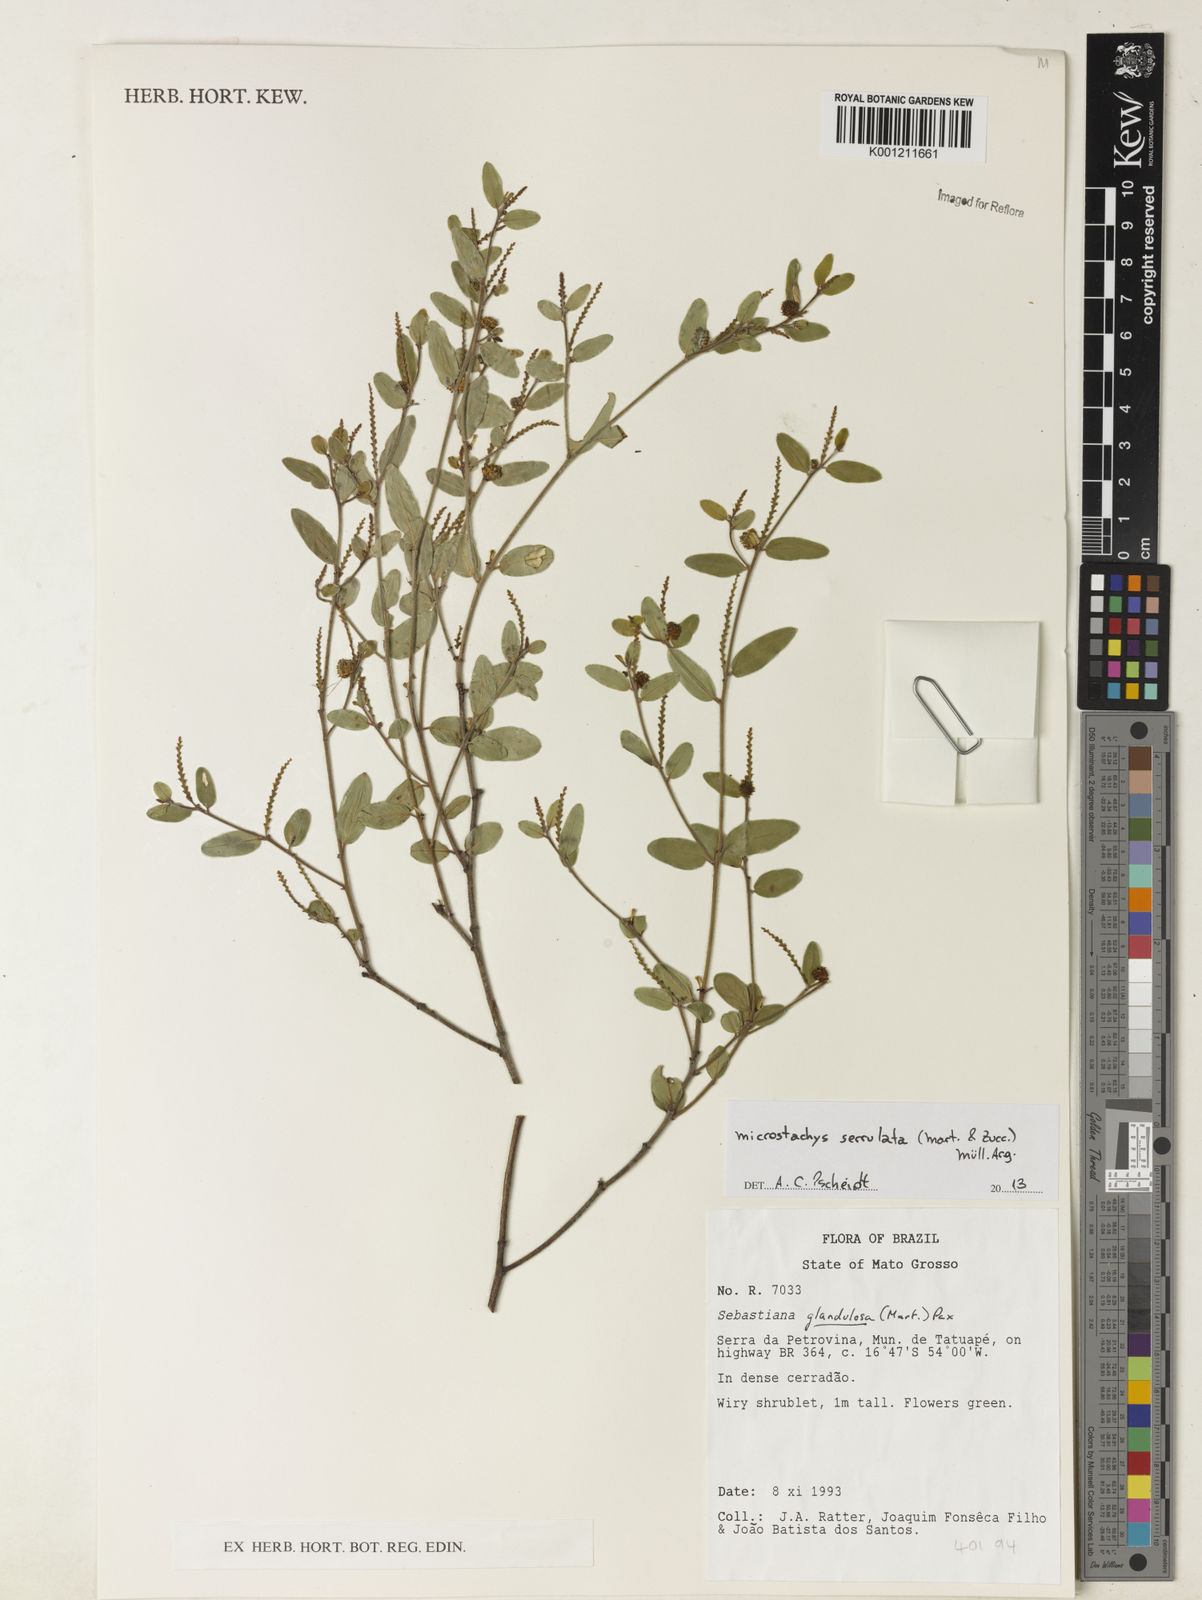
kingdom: Plantae
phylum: Tracheophyta
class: Magnoliopsida
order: Malpighiales
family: Euphorbiaceae
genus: Microstachys
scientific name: Microstachys
